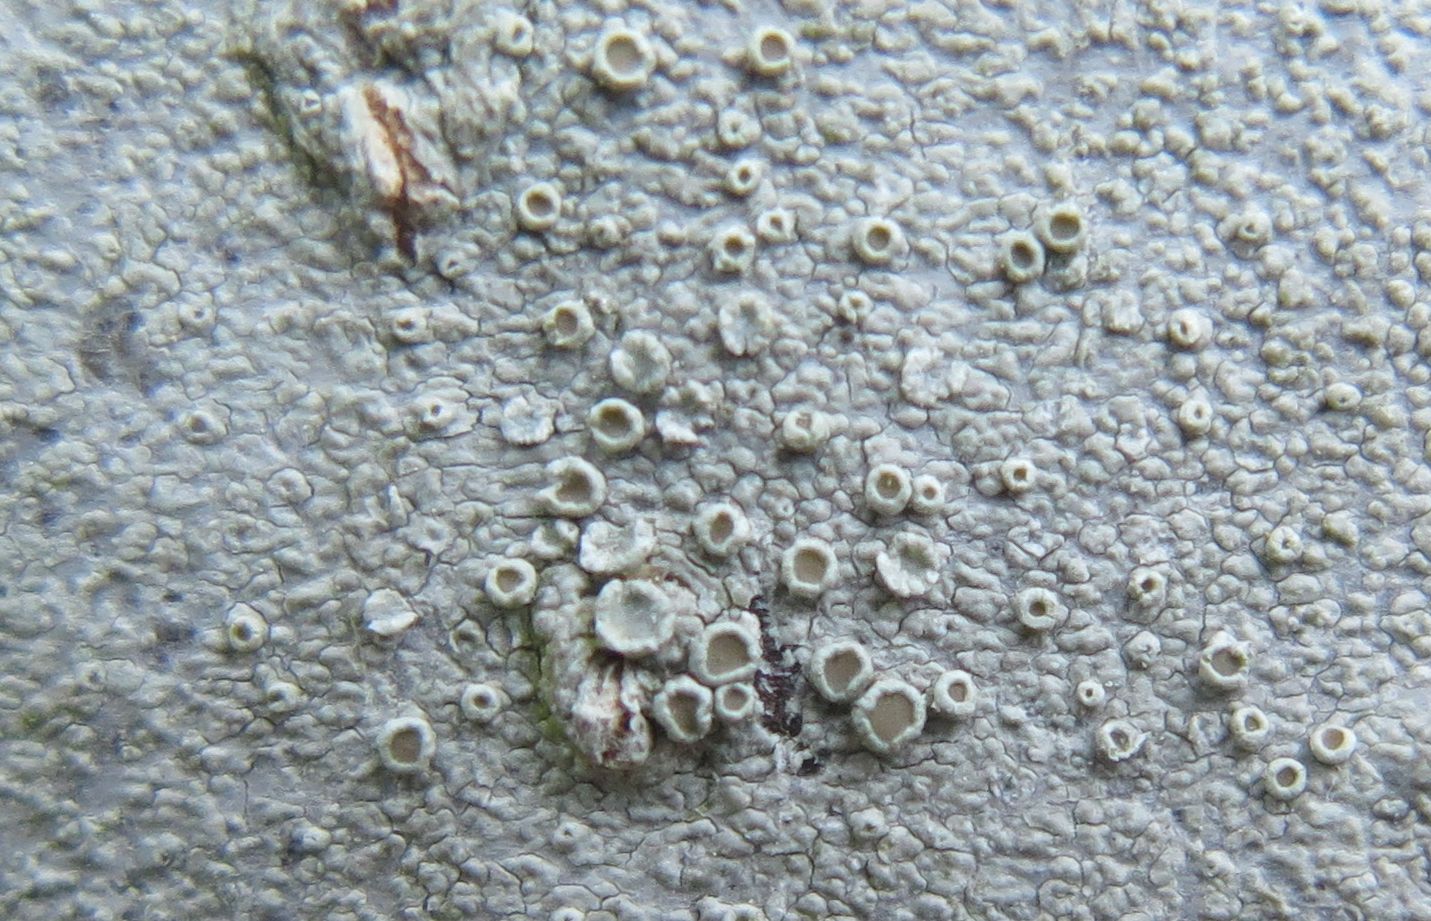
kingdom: Fungi
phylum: Ascomycota
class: Lecanoromycetes
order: Lecanorales
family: Lecanoraceae
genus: Lecanora
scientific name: Lecanora chlarotera
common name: brun kantskivelav
